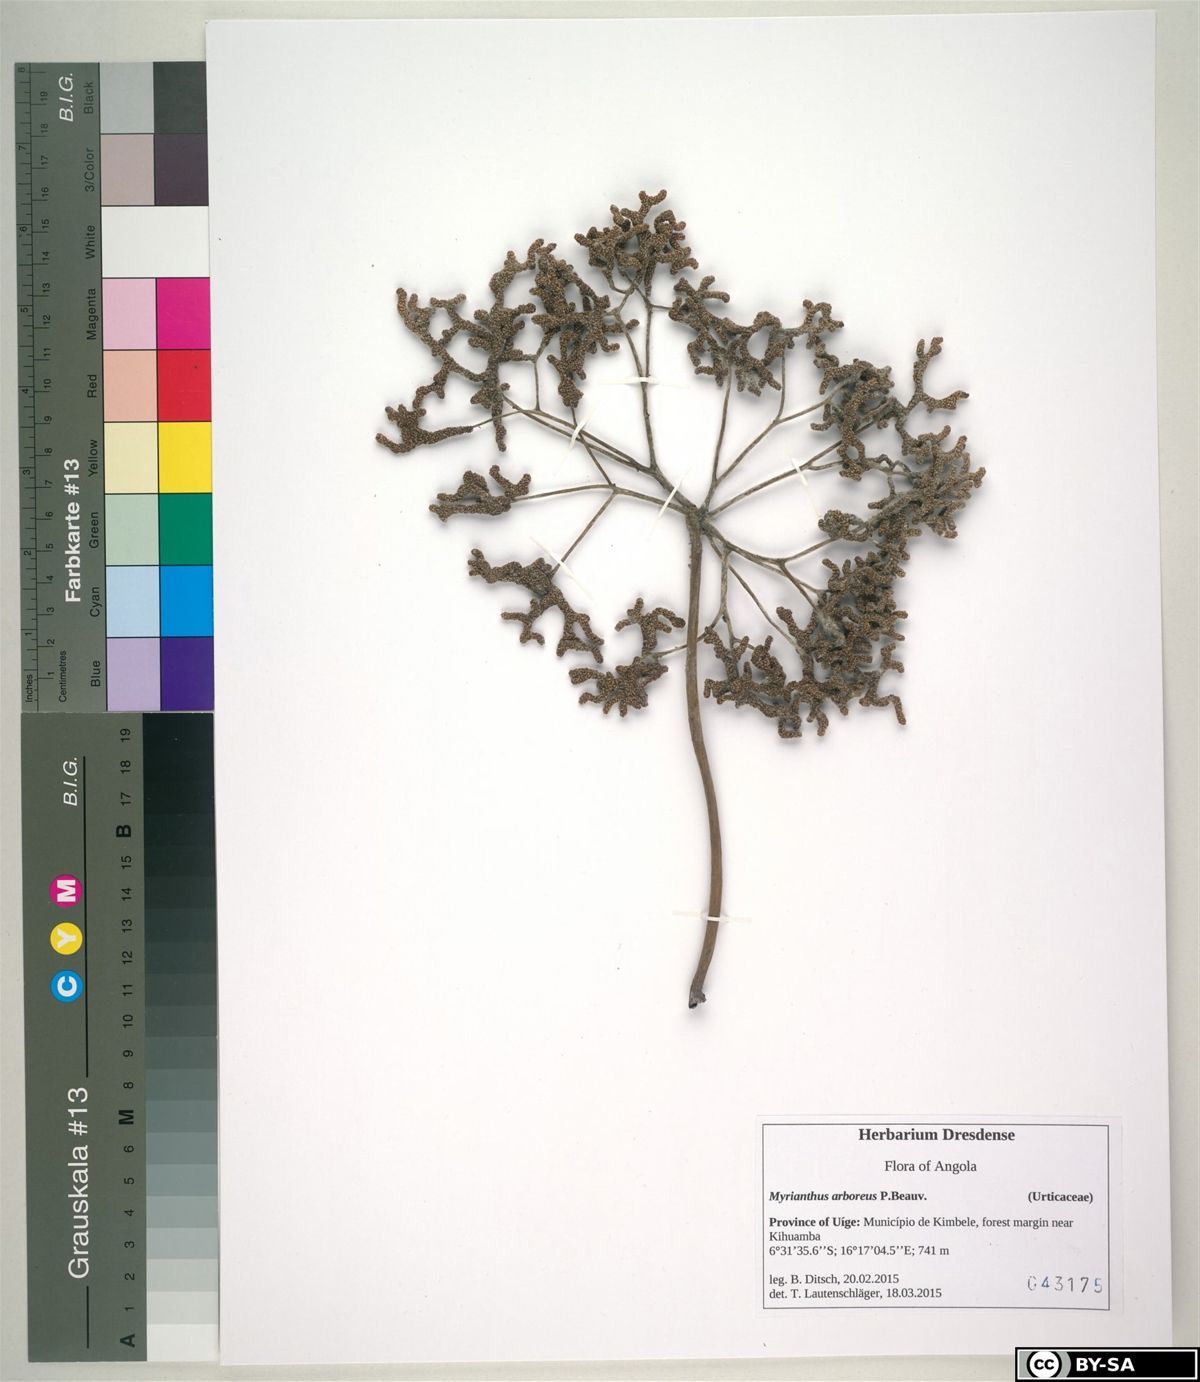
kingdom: Plantae
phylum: Tracheophyta
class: Magnoliopsida
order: Rosales
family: Urticaceae
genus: Myrianthus
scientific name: Myrianthus arboreus
